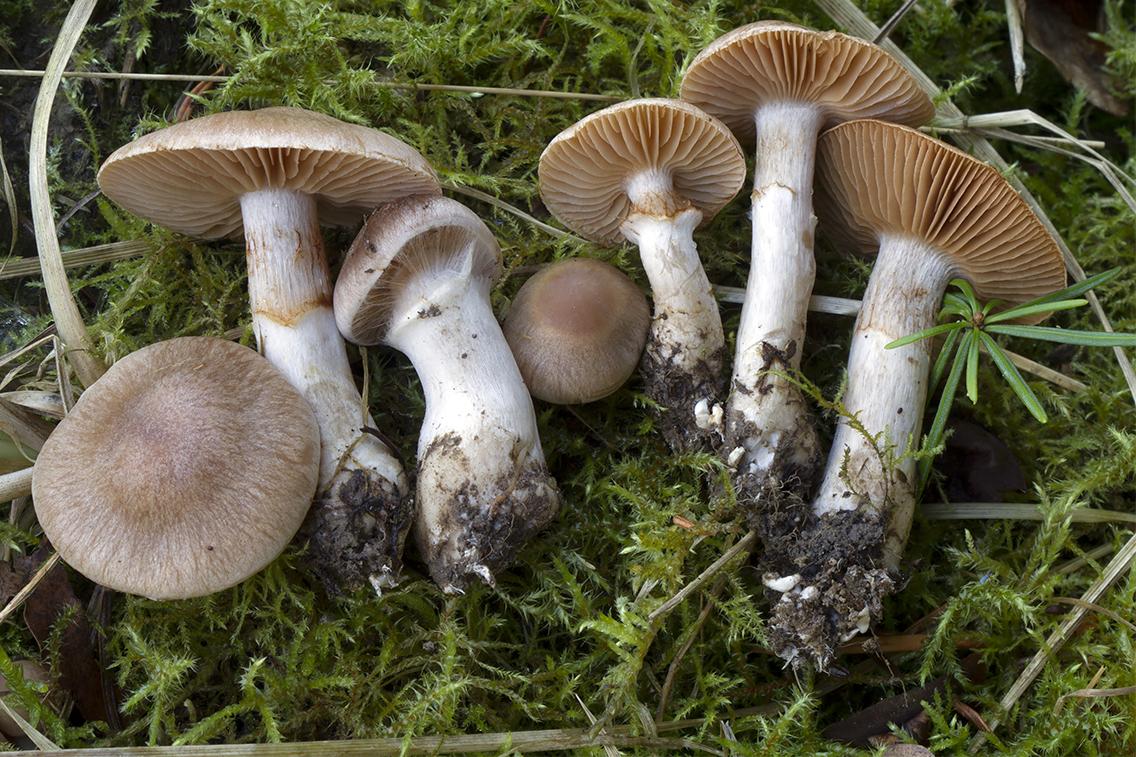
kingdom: Fungi
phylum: Basidiomycota
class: Agaricomycetes
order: Agaricales
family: Cortinariaceae
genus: Cortinarius
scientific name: Cortinarius
